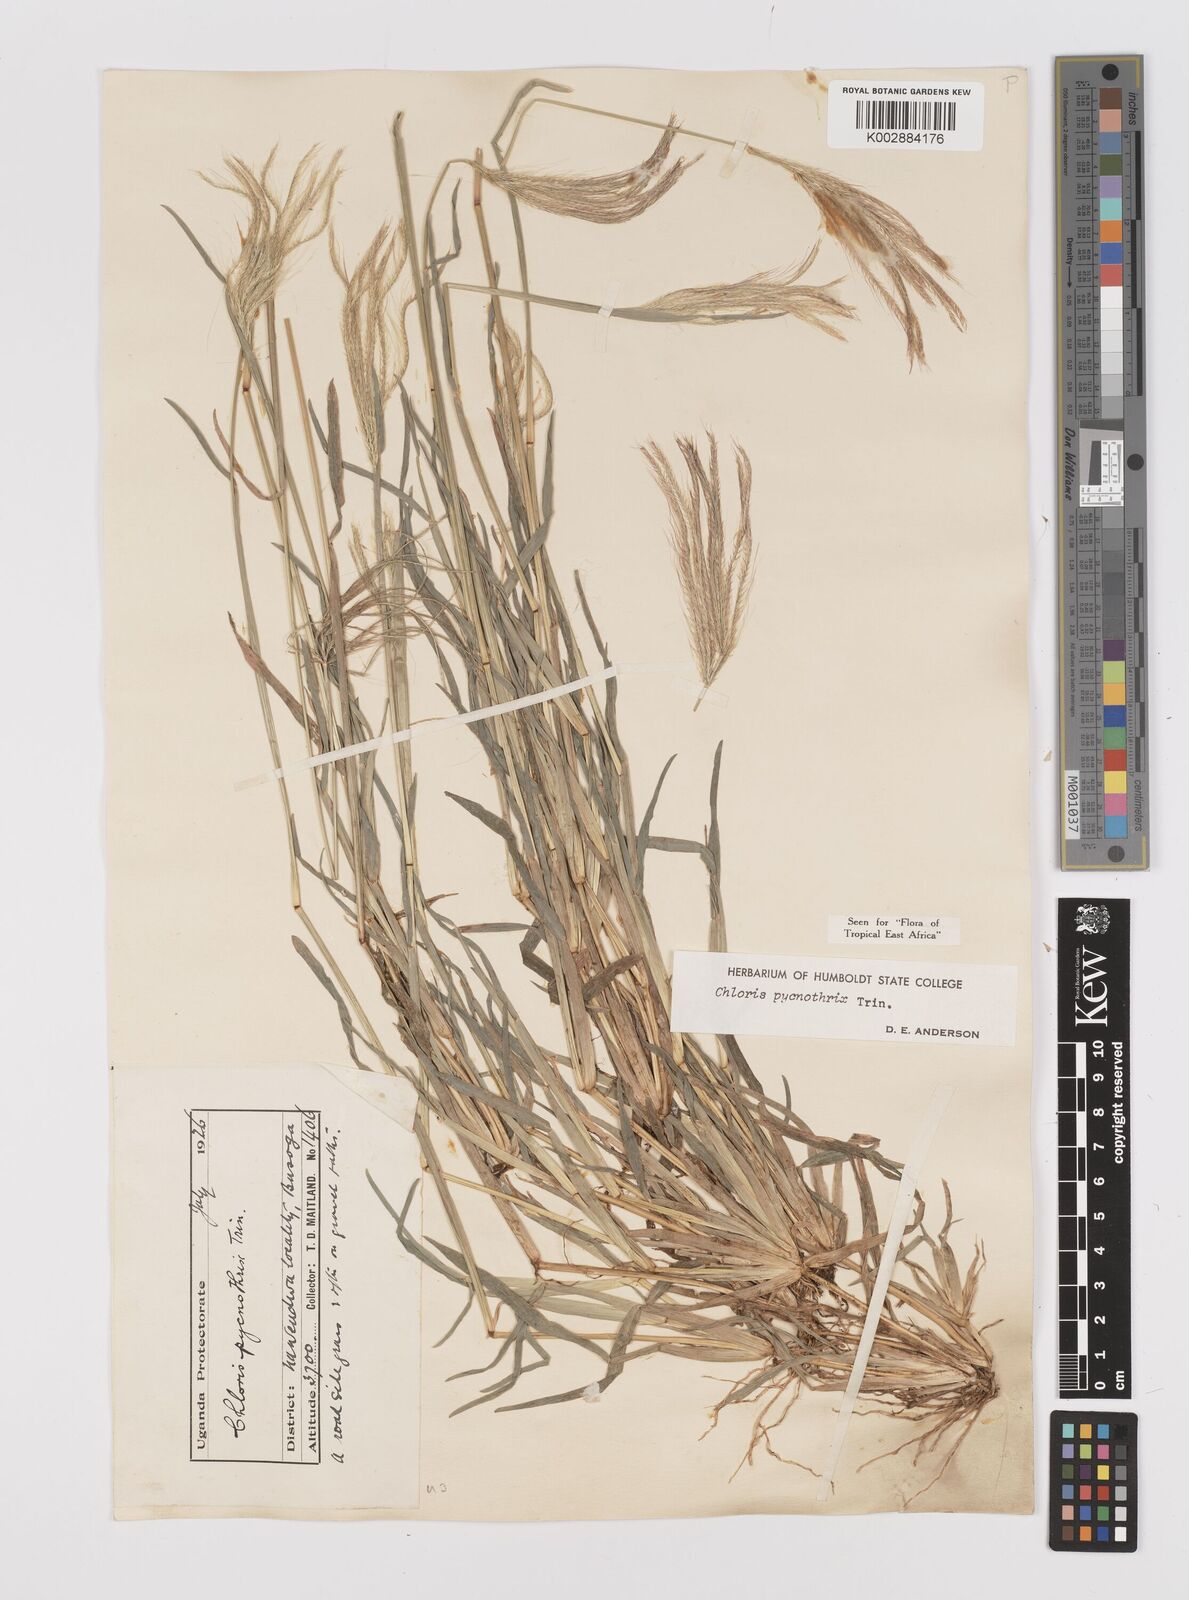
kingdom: Plantae
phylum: Tracheophyta
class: Liliopsida
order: Poales
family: Poaceae
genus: Chloris
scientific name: Chloris pycnothrix
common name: Spiderweb chloris
